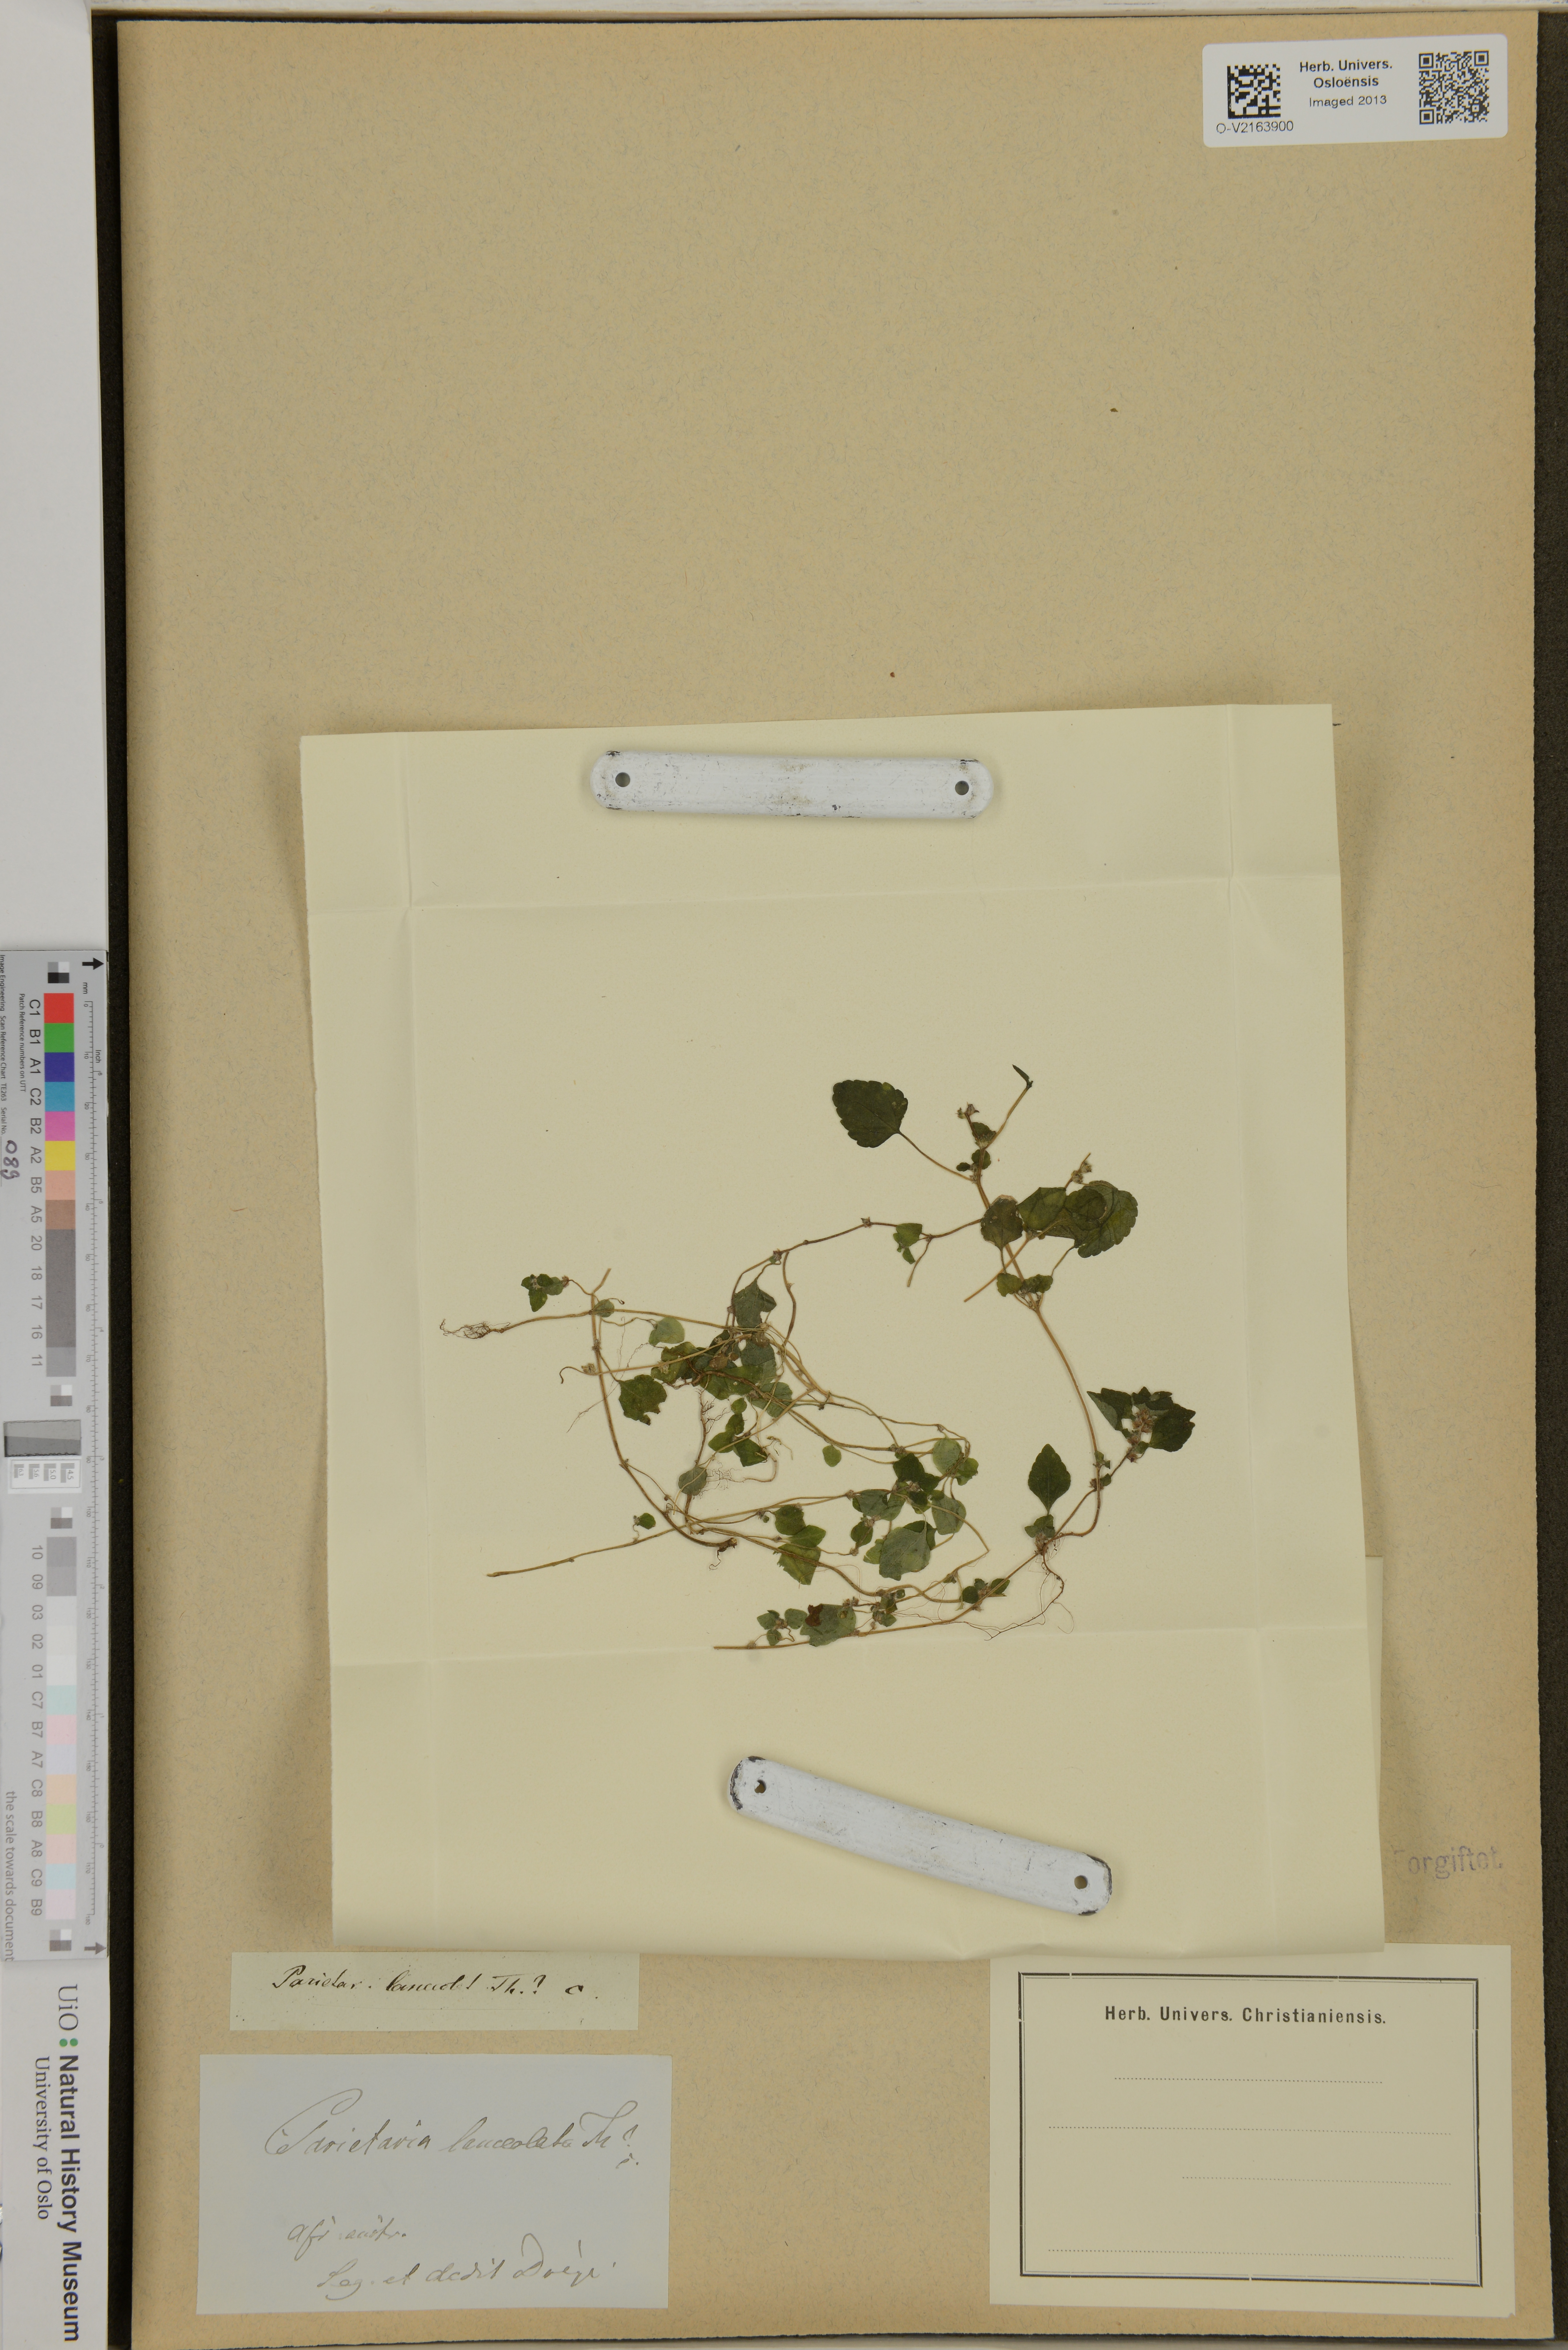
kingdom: Plantae
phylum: Tracheophyta
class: Magnoliopsida
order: Rosales
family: Urticaceae
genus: Pouzolzia
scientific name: Pouzolzia zeylanica
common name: Graceful pouzolzsbush
